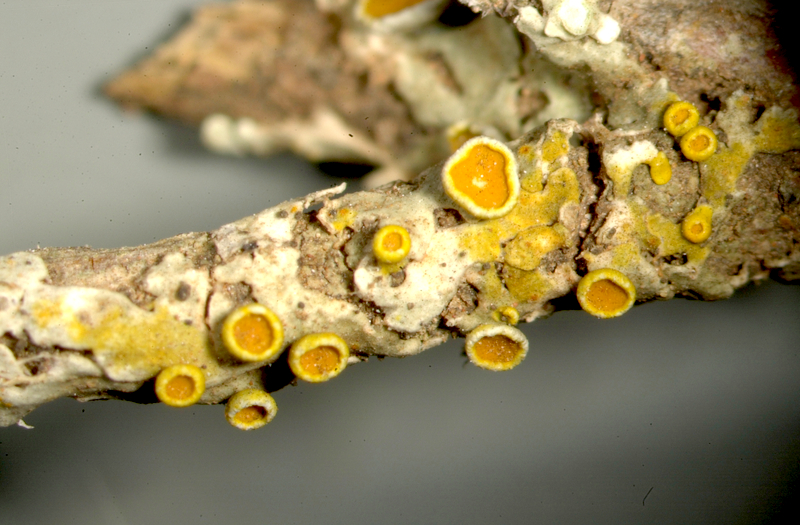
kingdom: Fungi
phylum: Ascomycota
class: Lecanoromycetes
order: Teloschistales
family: Teloschistaceae
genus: Xanthoria
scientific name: Xanthoria
